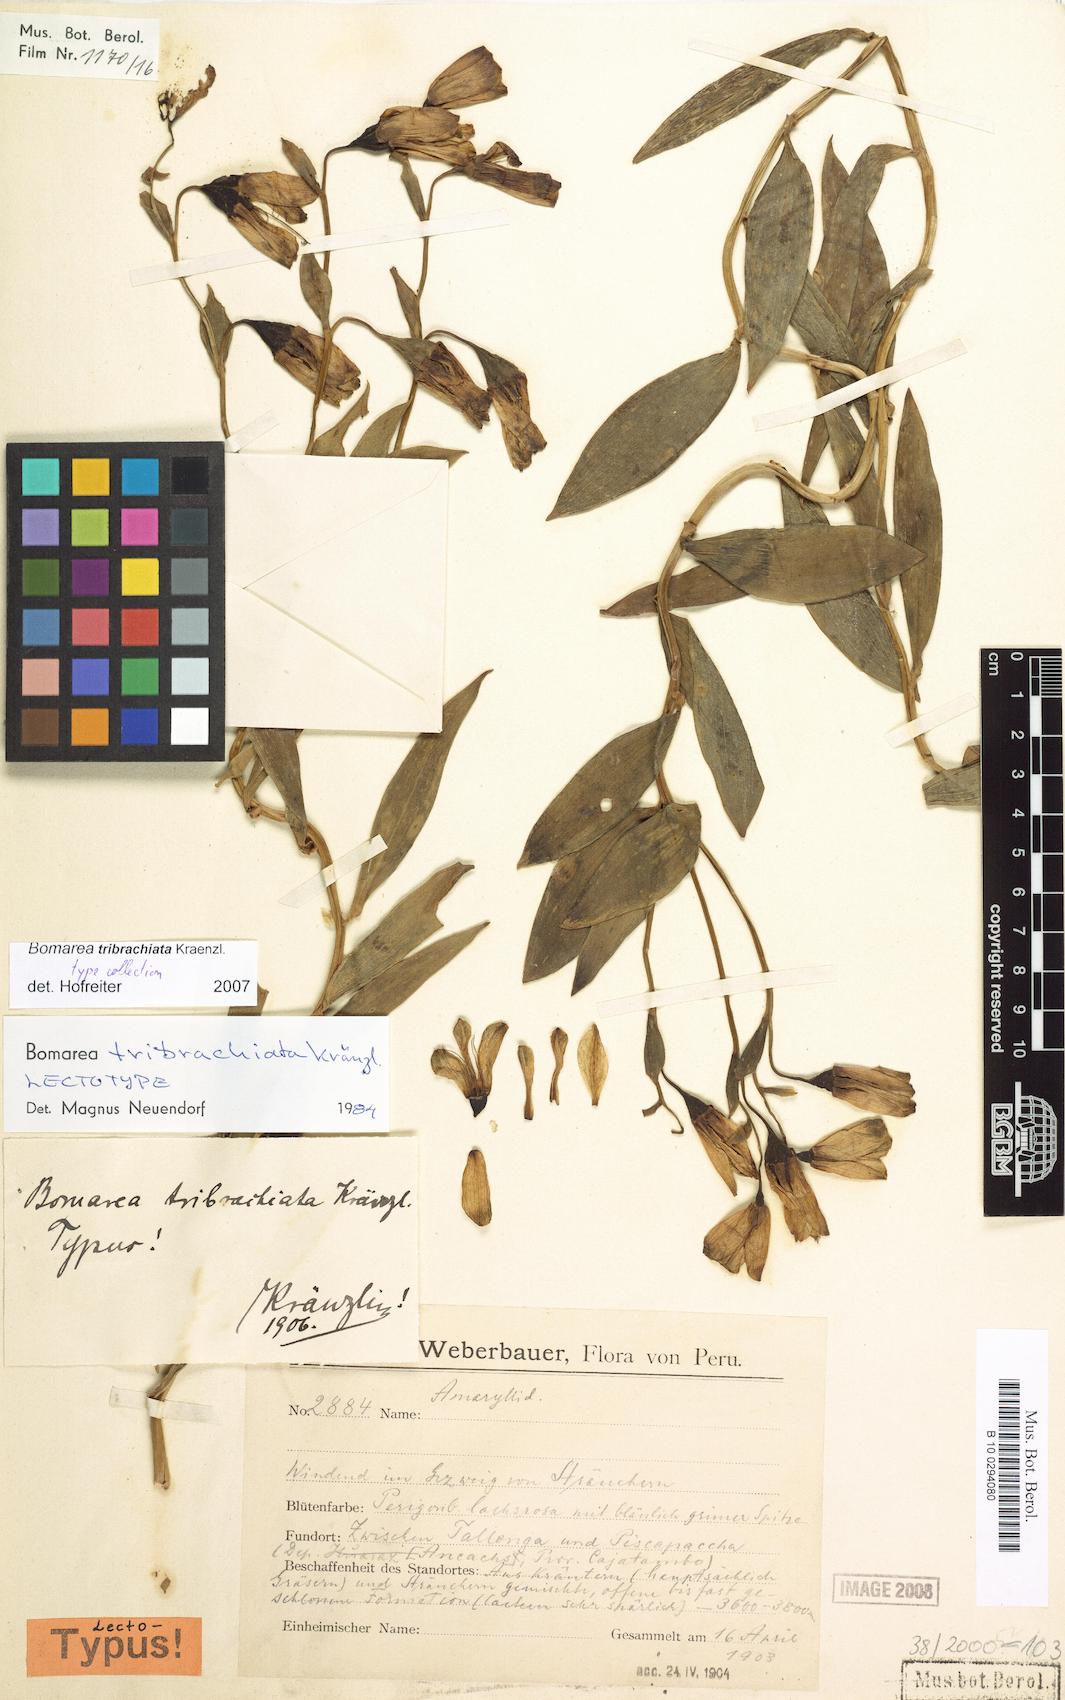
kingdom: Plantae
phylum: Tracheophyta
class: Liliopsida
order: Liliales
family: Alstroemeriaceae
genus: Bomarea
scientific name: Bomarea tribrachiata
